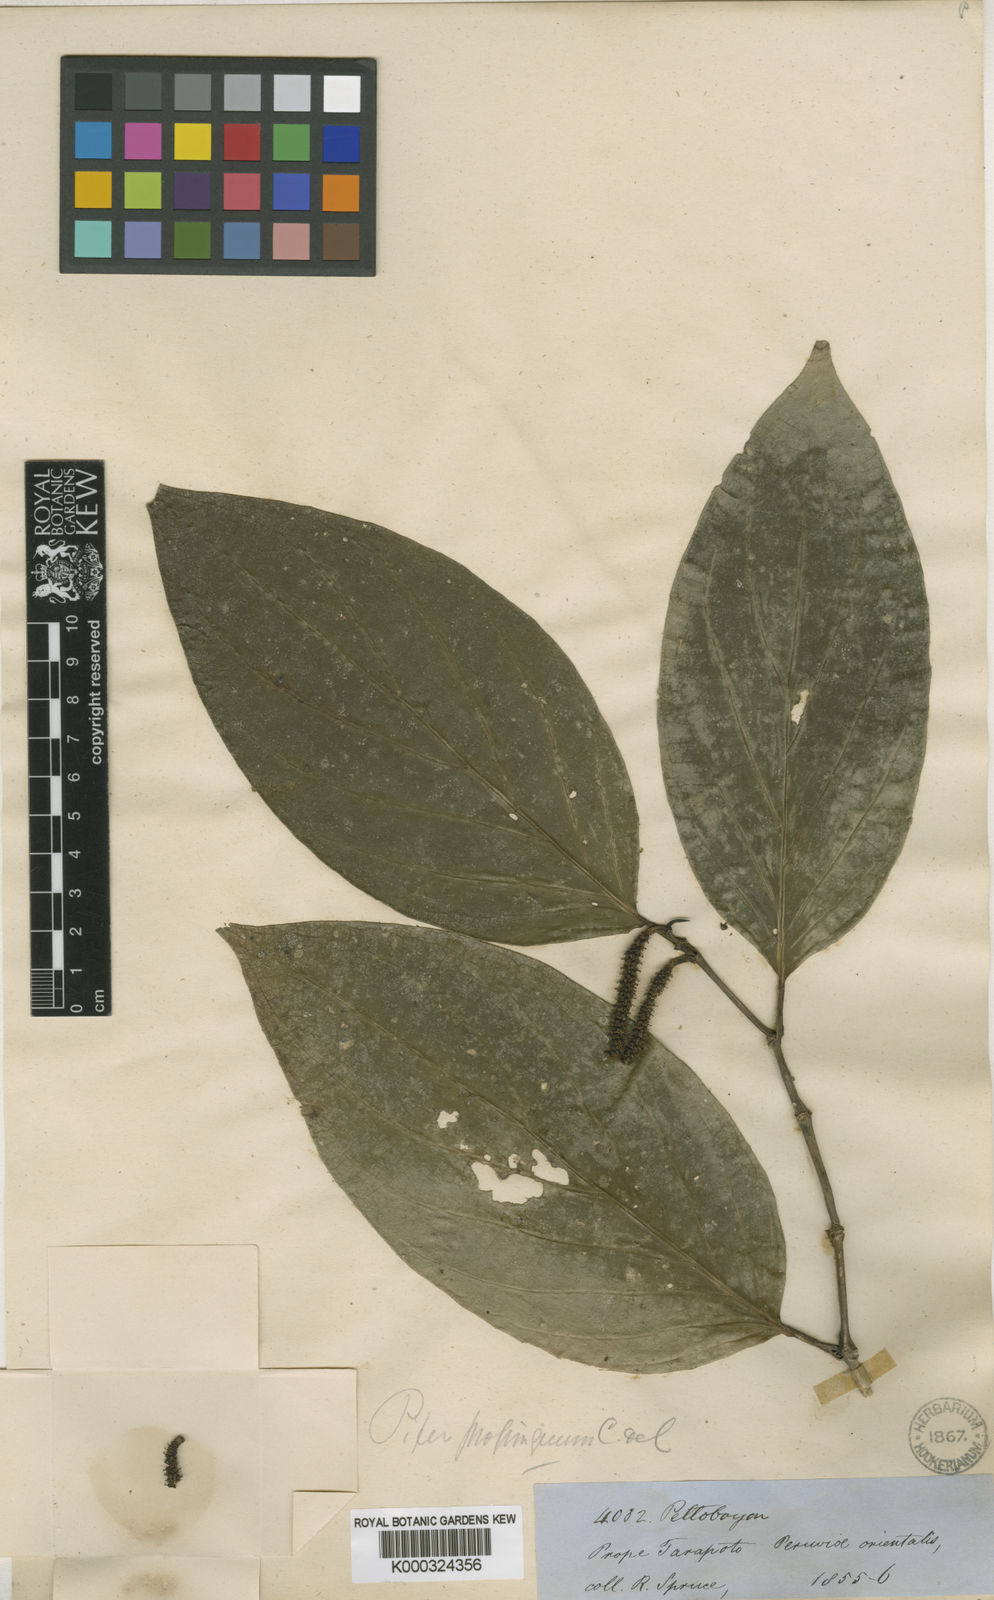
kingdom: Plantae
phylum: Tracheophyta
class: Magnoliopsida
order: Piperales
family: Piperaceae
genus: Piper
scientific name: Piper crassinervium
